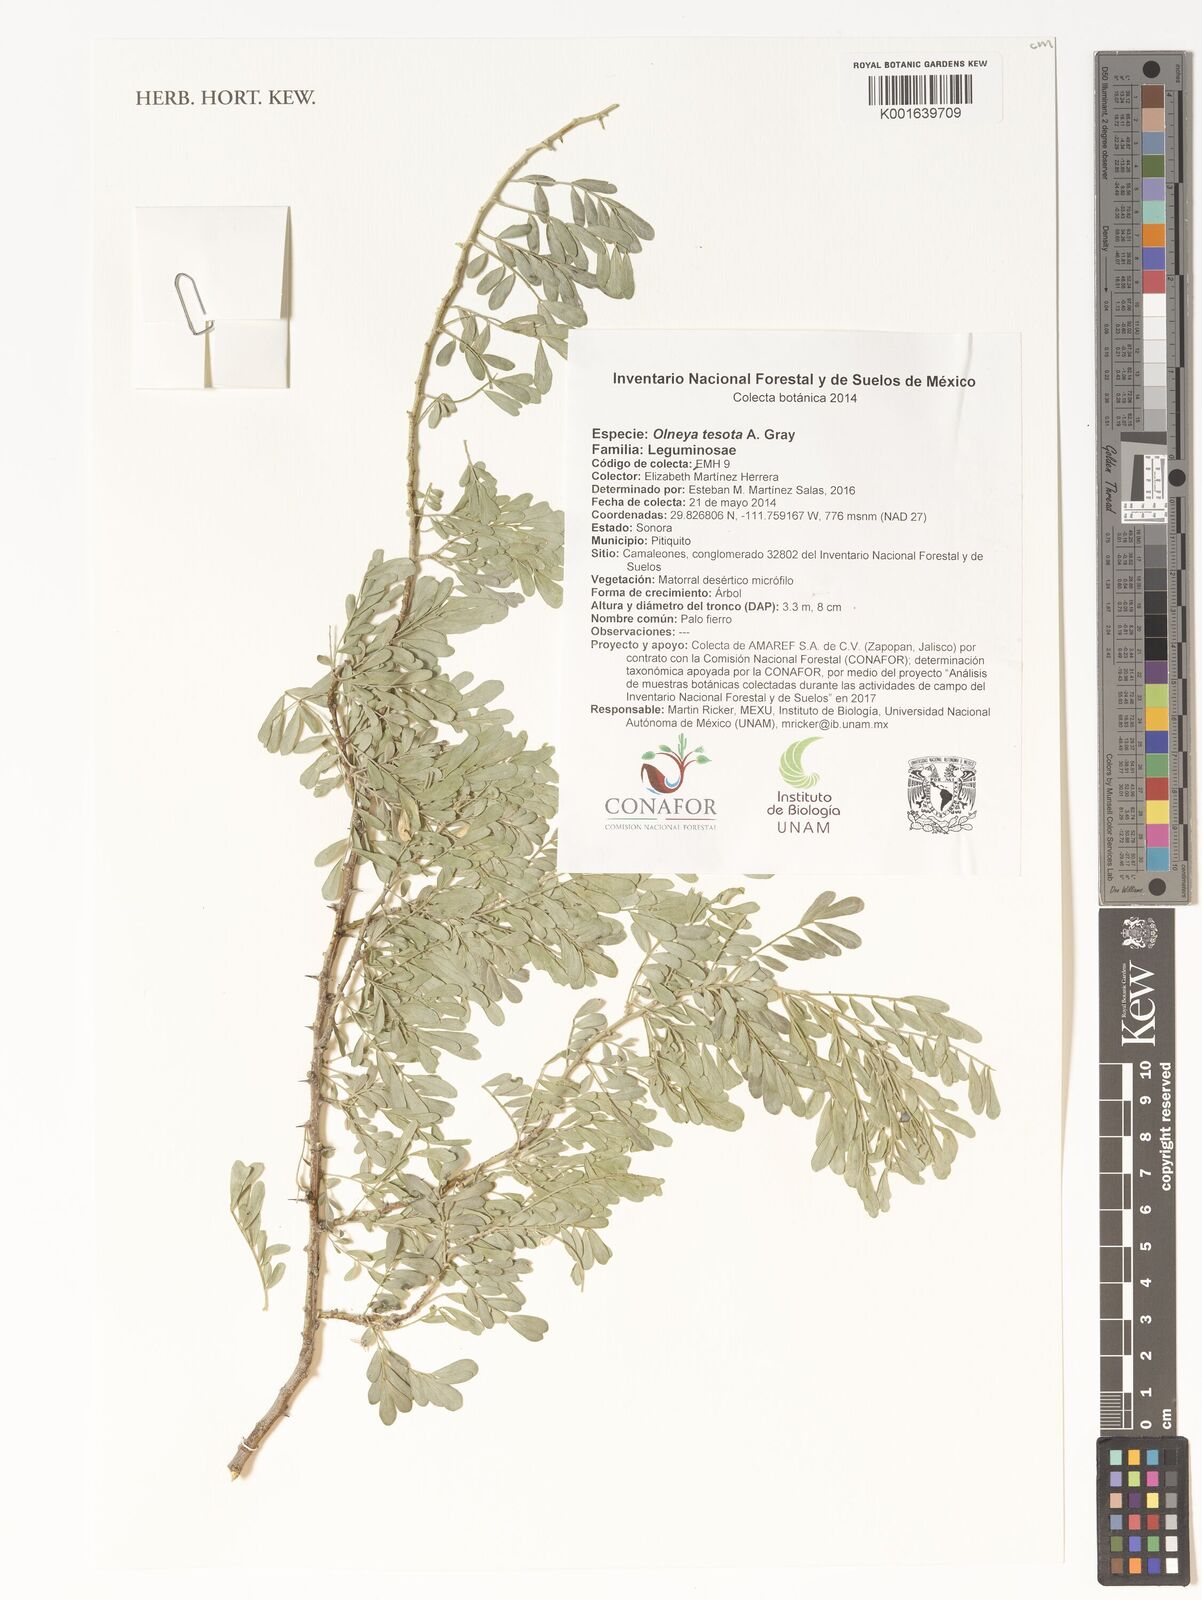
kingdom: Plantae
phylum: Tracheophyta
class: Magnoliopsida
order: Fabales
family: Fabaceae
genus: Olneya
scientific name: Olneya tesota
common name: Desert ironwood
